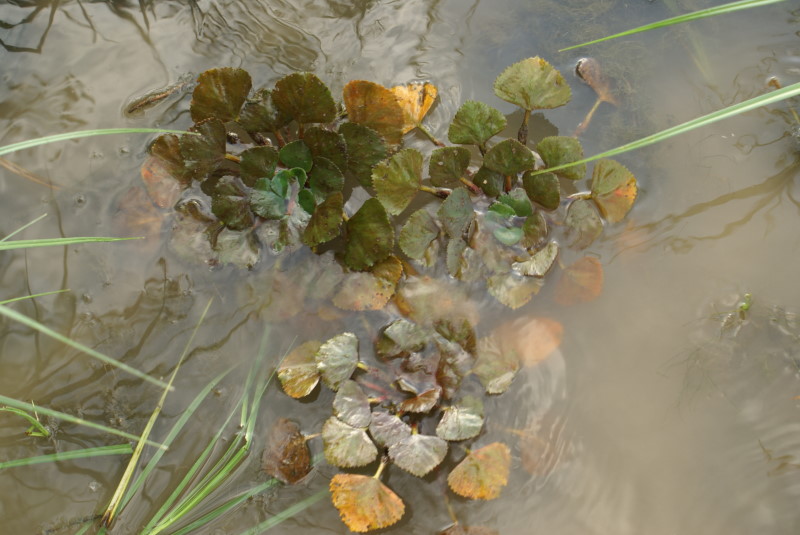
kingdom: Plantae
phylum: Tracheophyta
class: Magnoliopsida
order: Myrtales
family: Lythraceae
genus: Trapa
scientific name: Trapa natans
